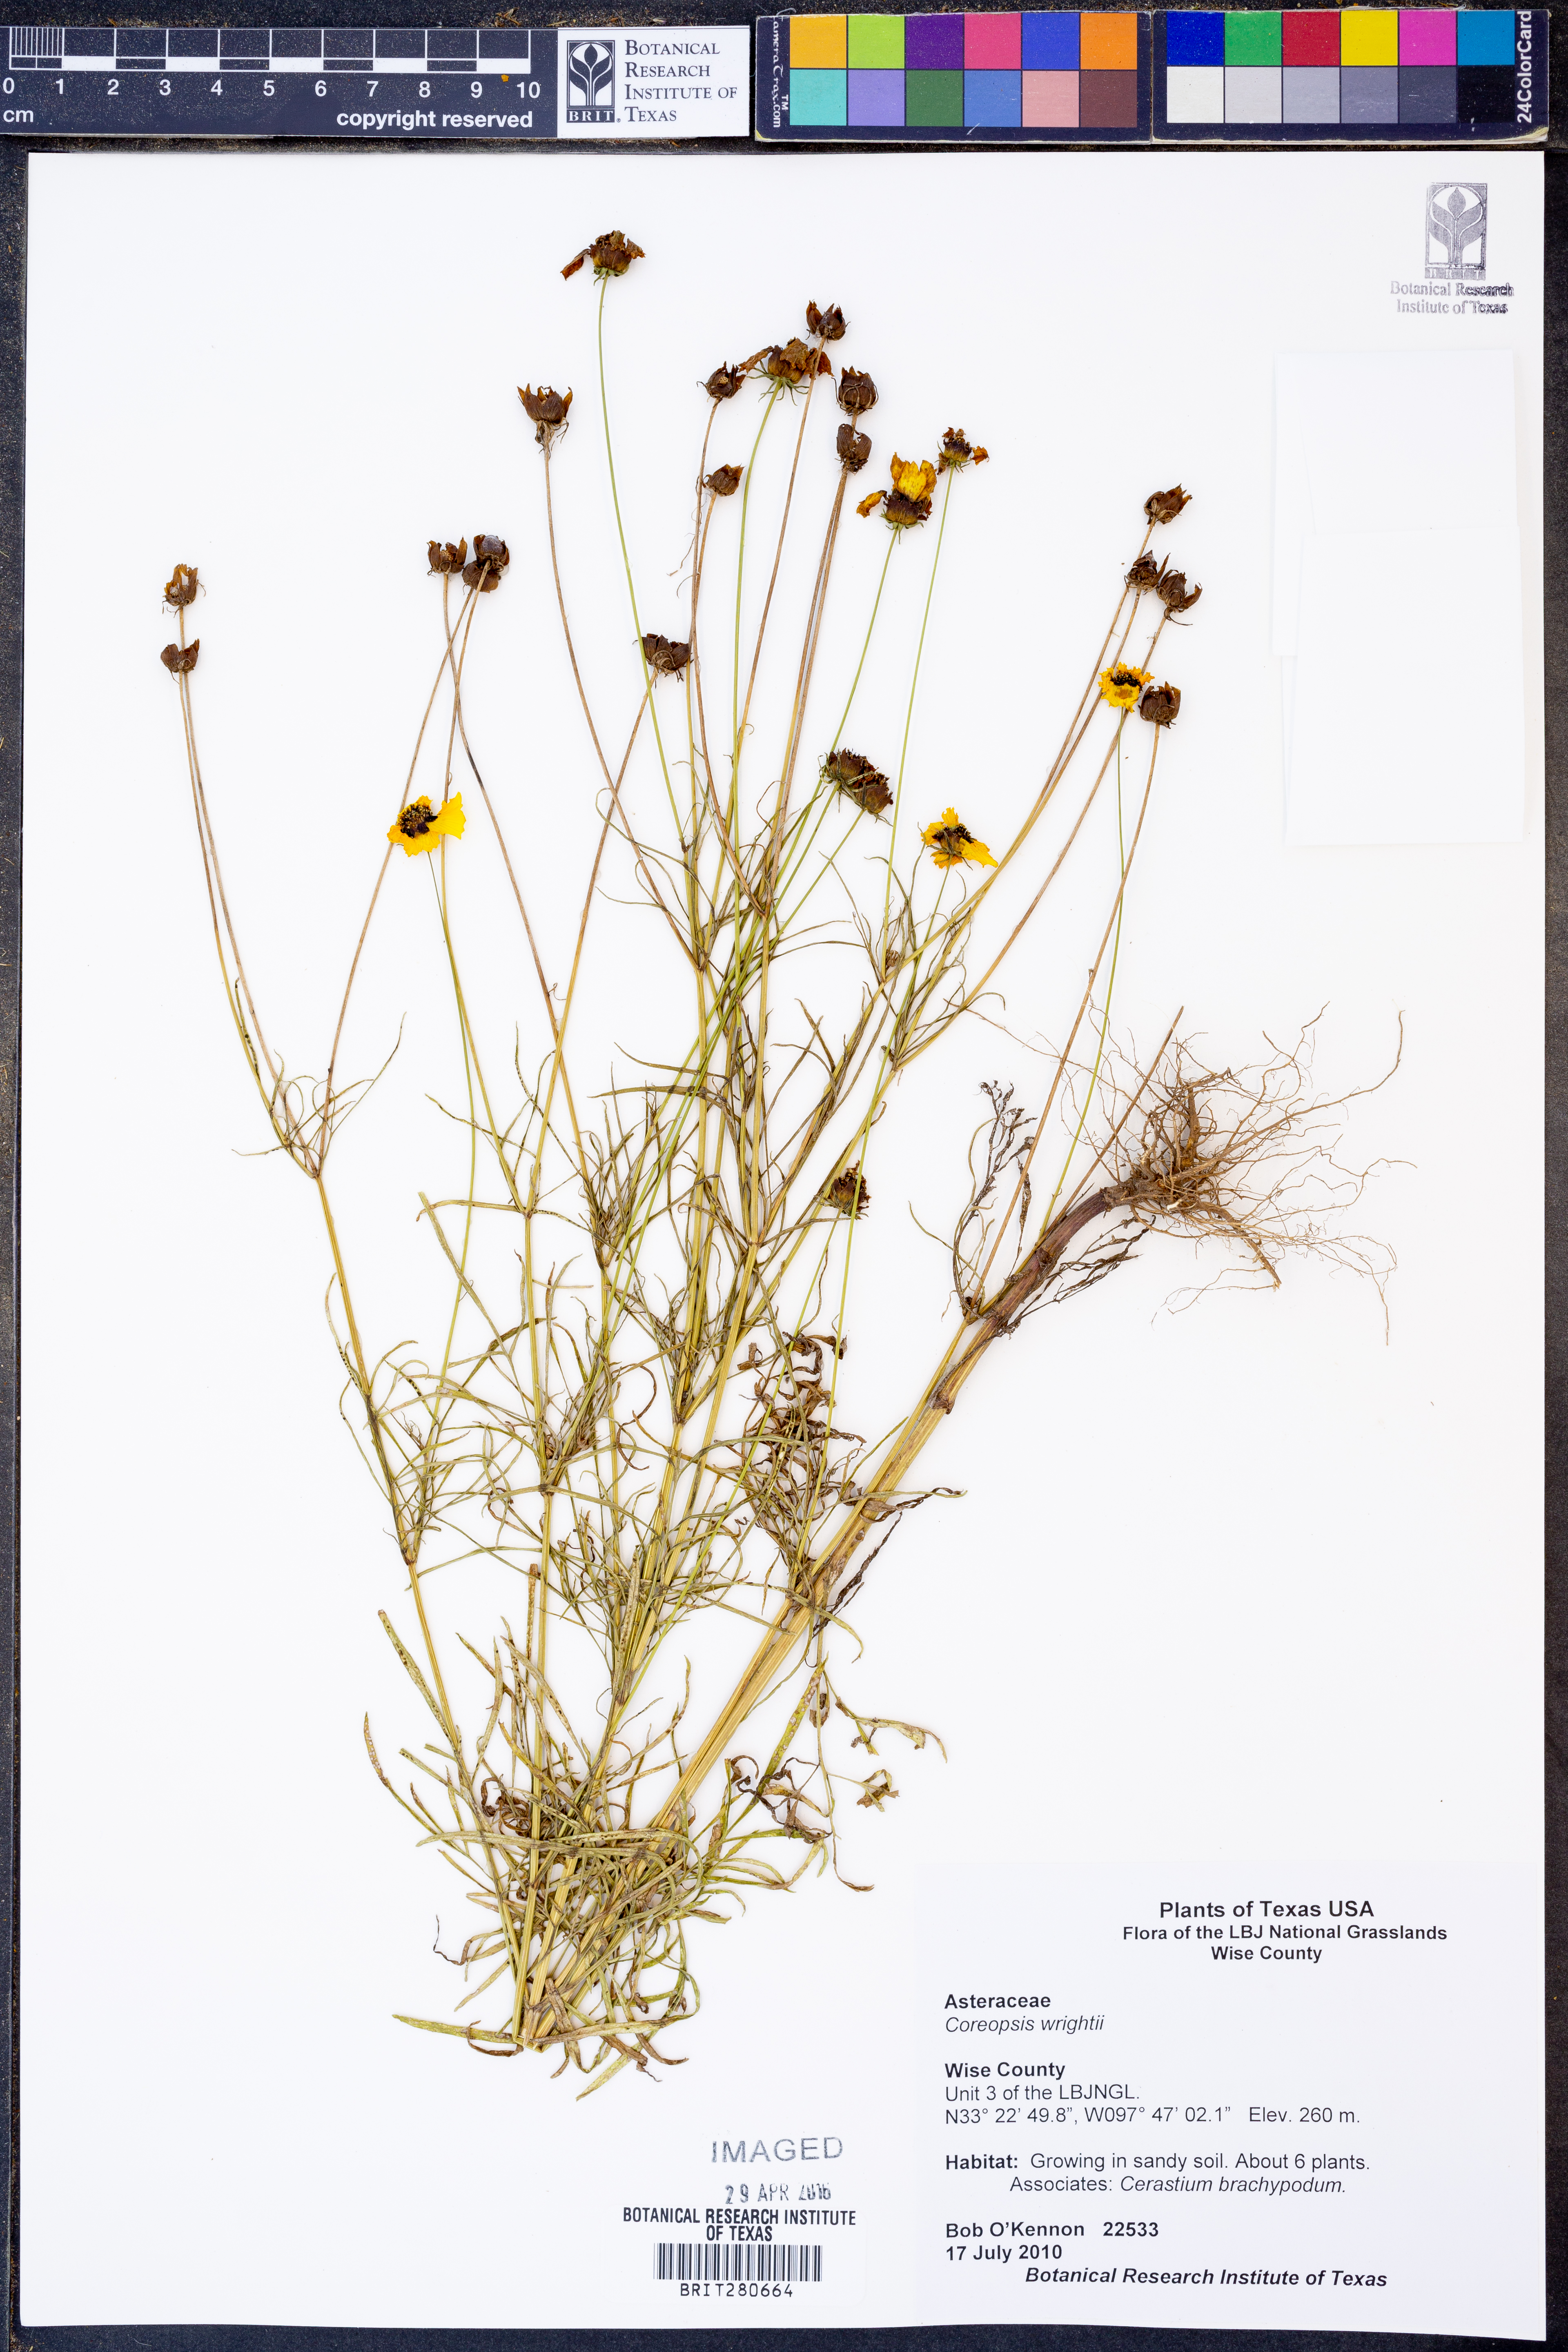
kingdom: Plantae
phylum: Tracheophyta
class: Magnoliopsida
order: Asterales
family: Asteraceae
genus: Coreopsis
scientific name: Coreopsis basalis
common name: Golden-mane coreopsis
